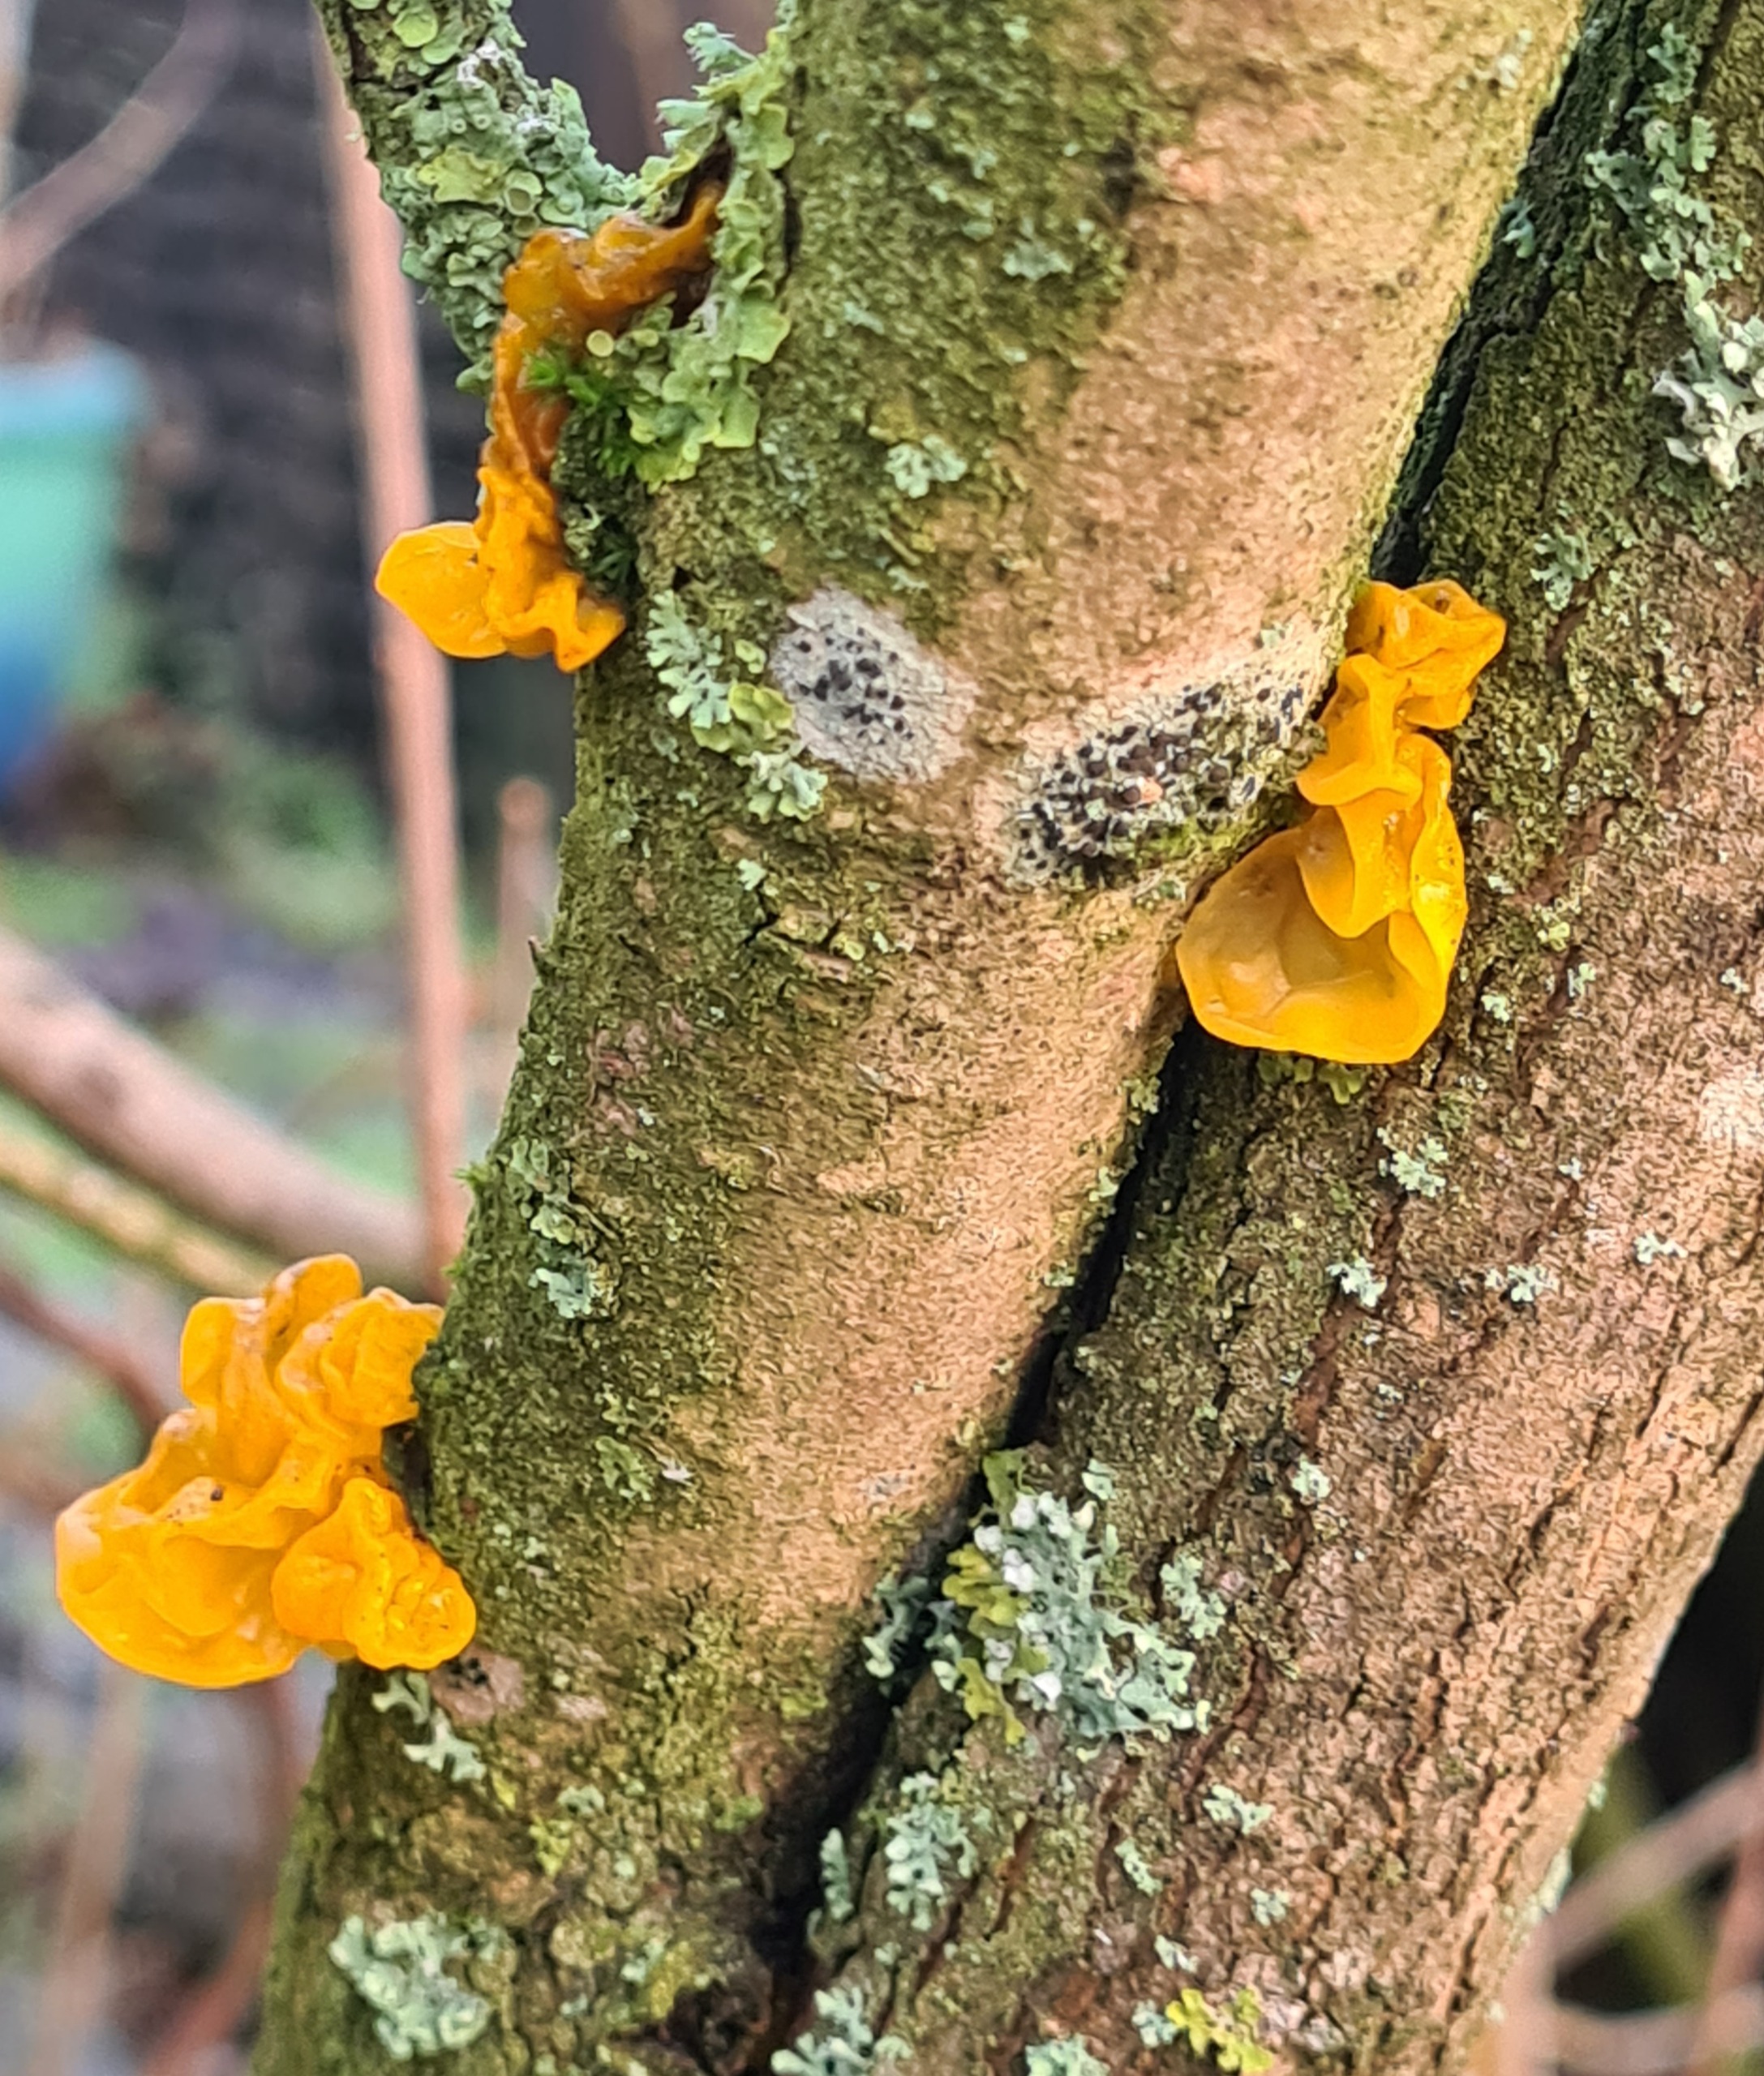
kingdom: Fungi
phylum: Basidiomycota
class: Tremellomycetes
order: Tremellales
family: Tremellaceae
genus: Tremella
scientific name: Tremella mesenterica
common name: Gul bævresvamp
